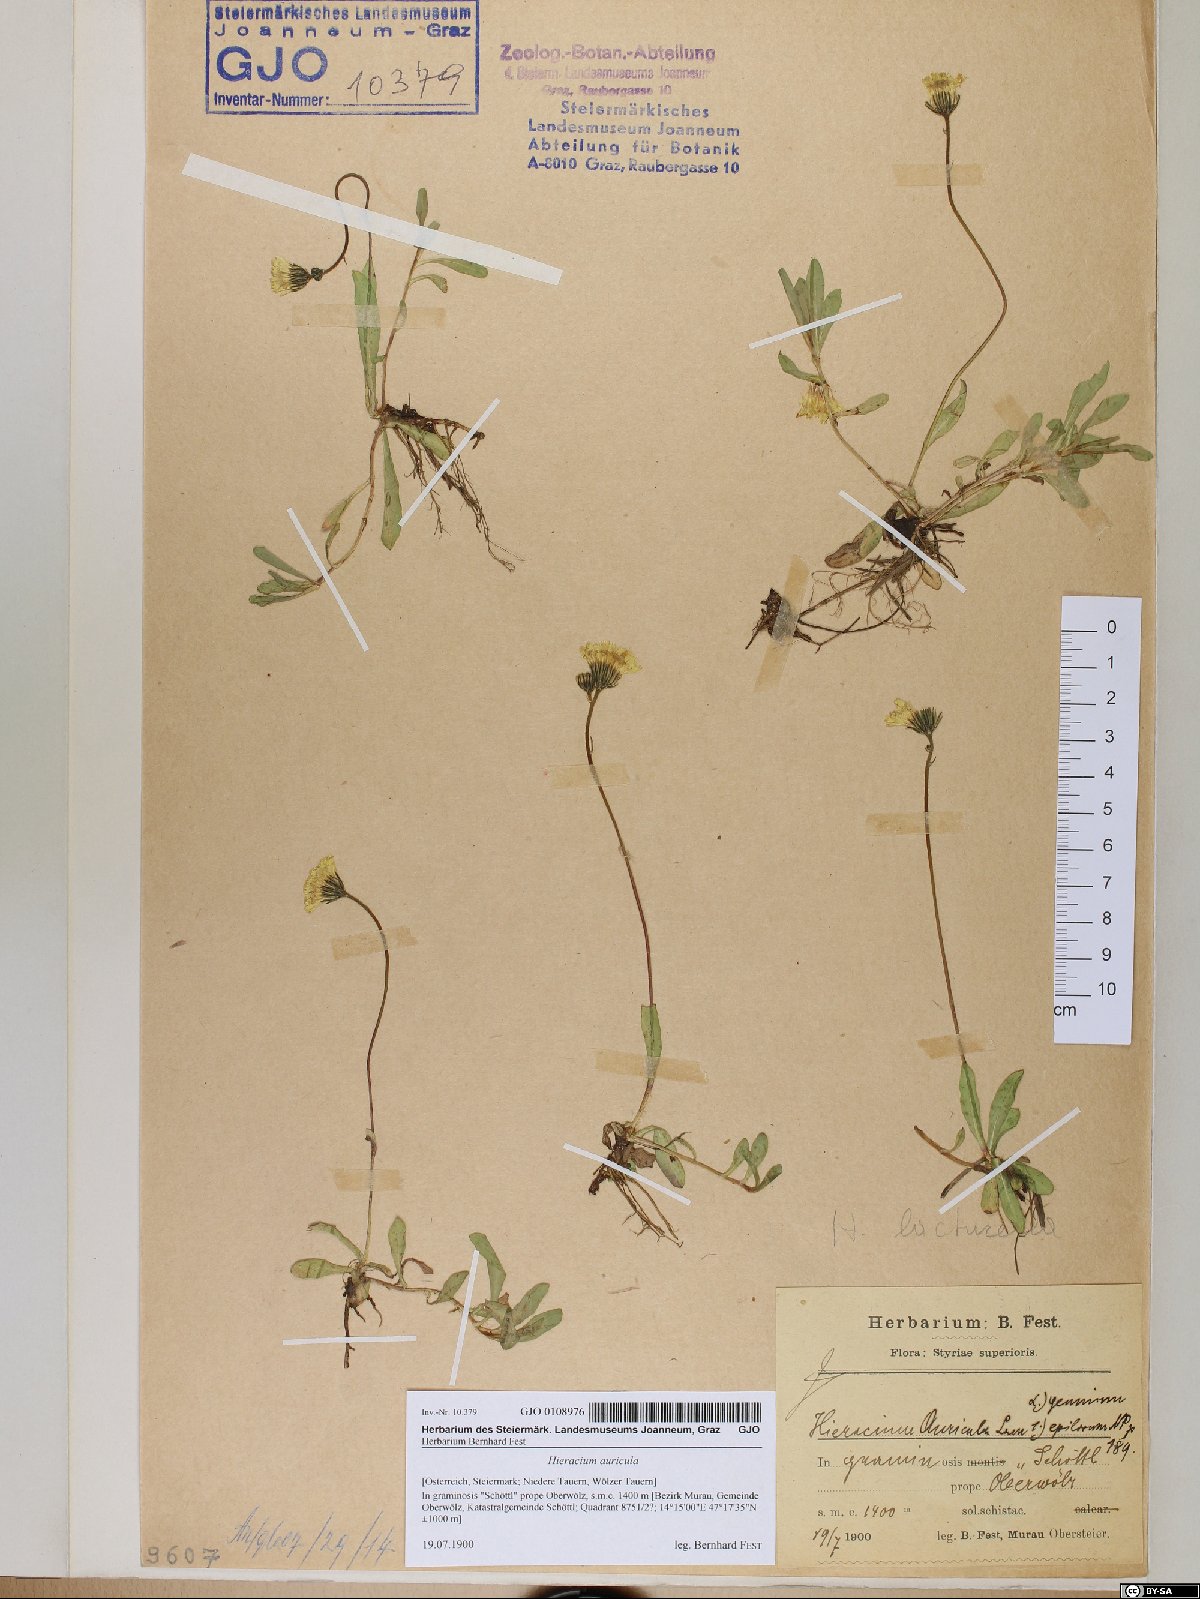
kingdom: Plantae
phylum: Tracheophyta
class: Magnoliopsida
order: Asterales
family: Asteraceae
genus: Hieracium
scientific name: Hieracium auricula
